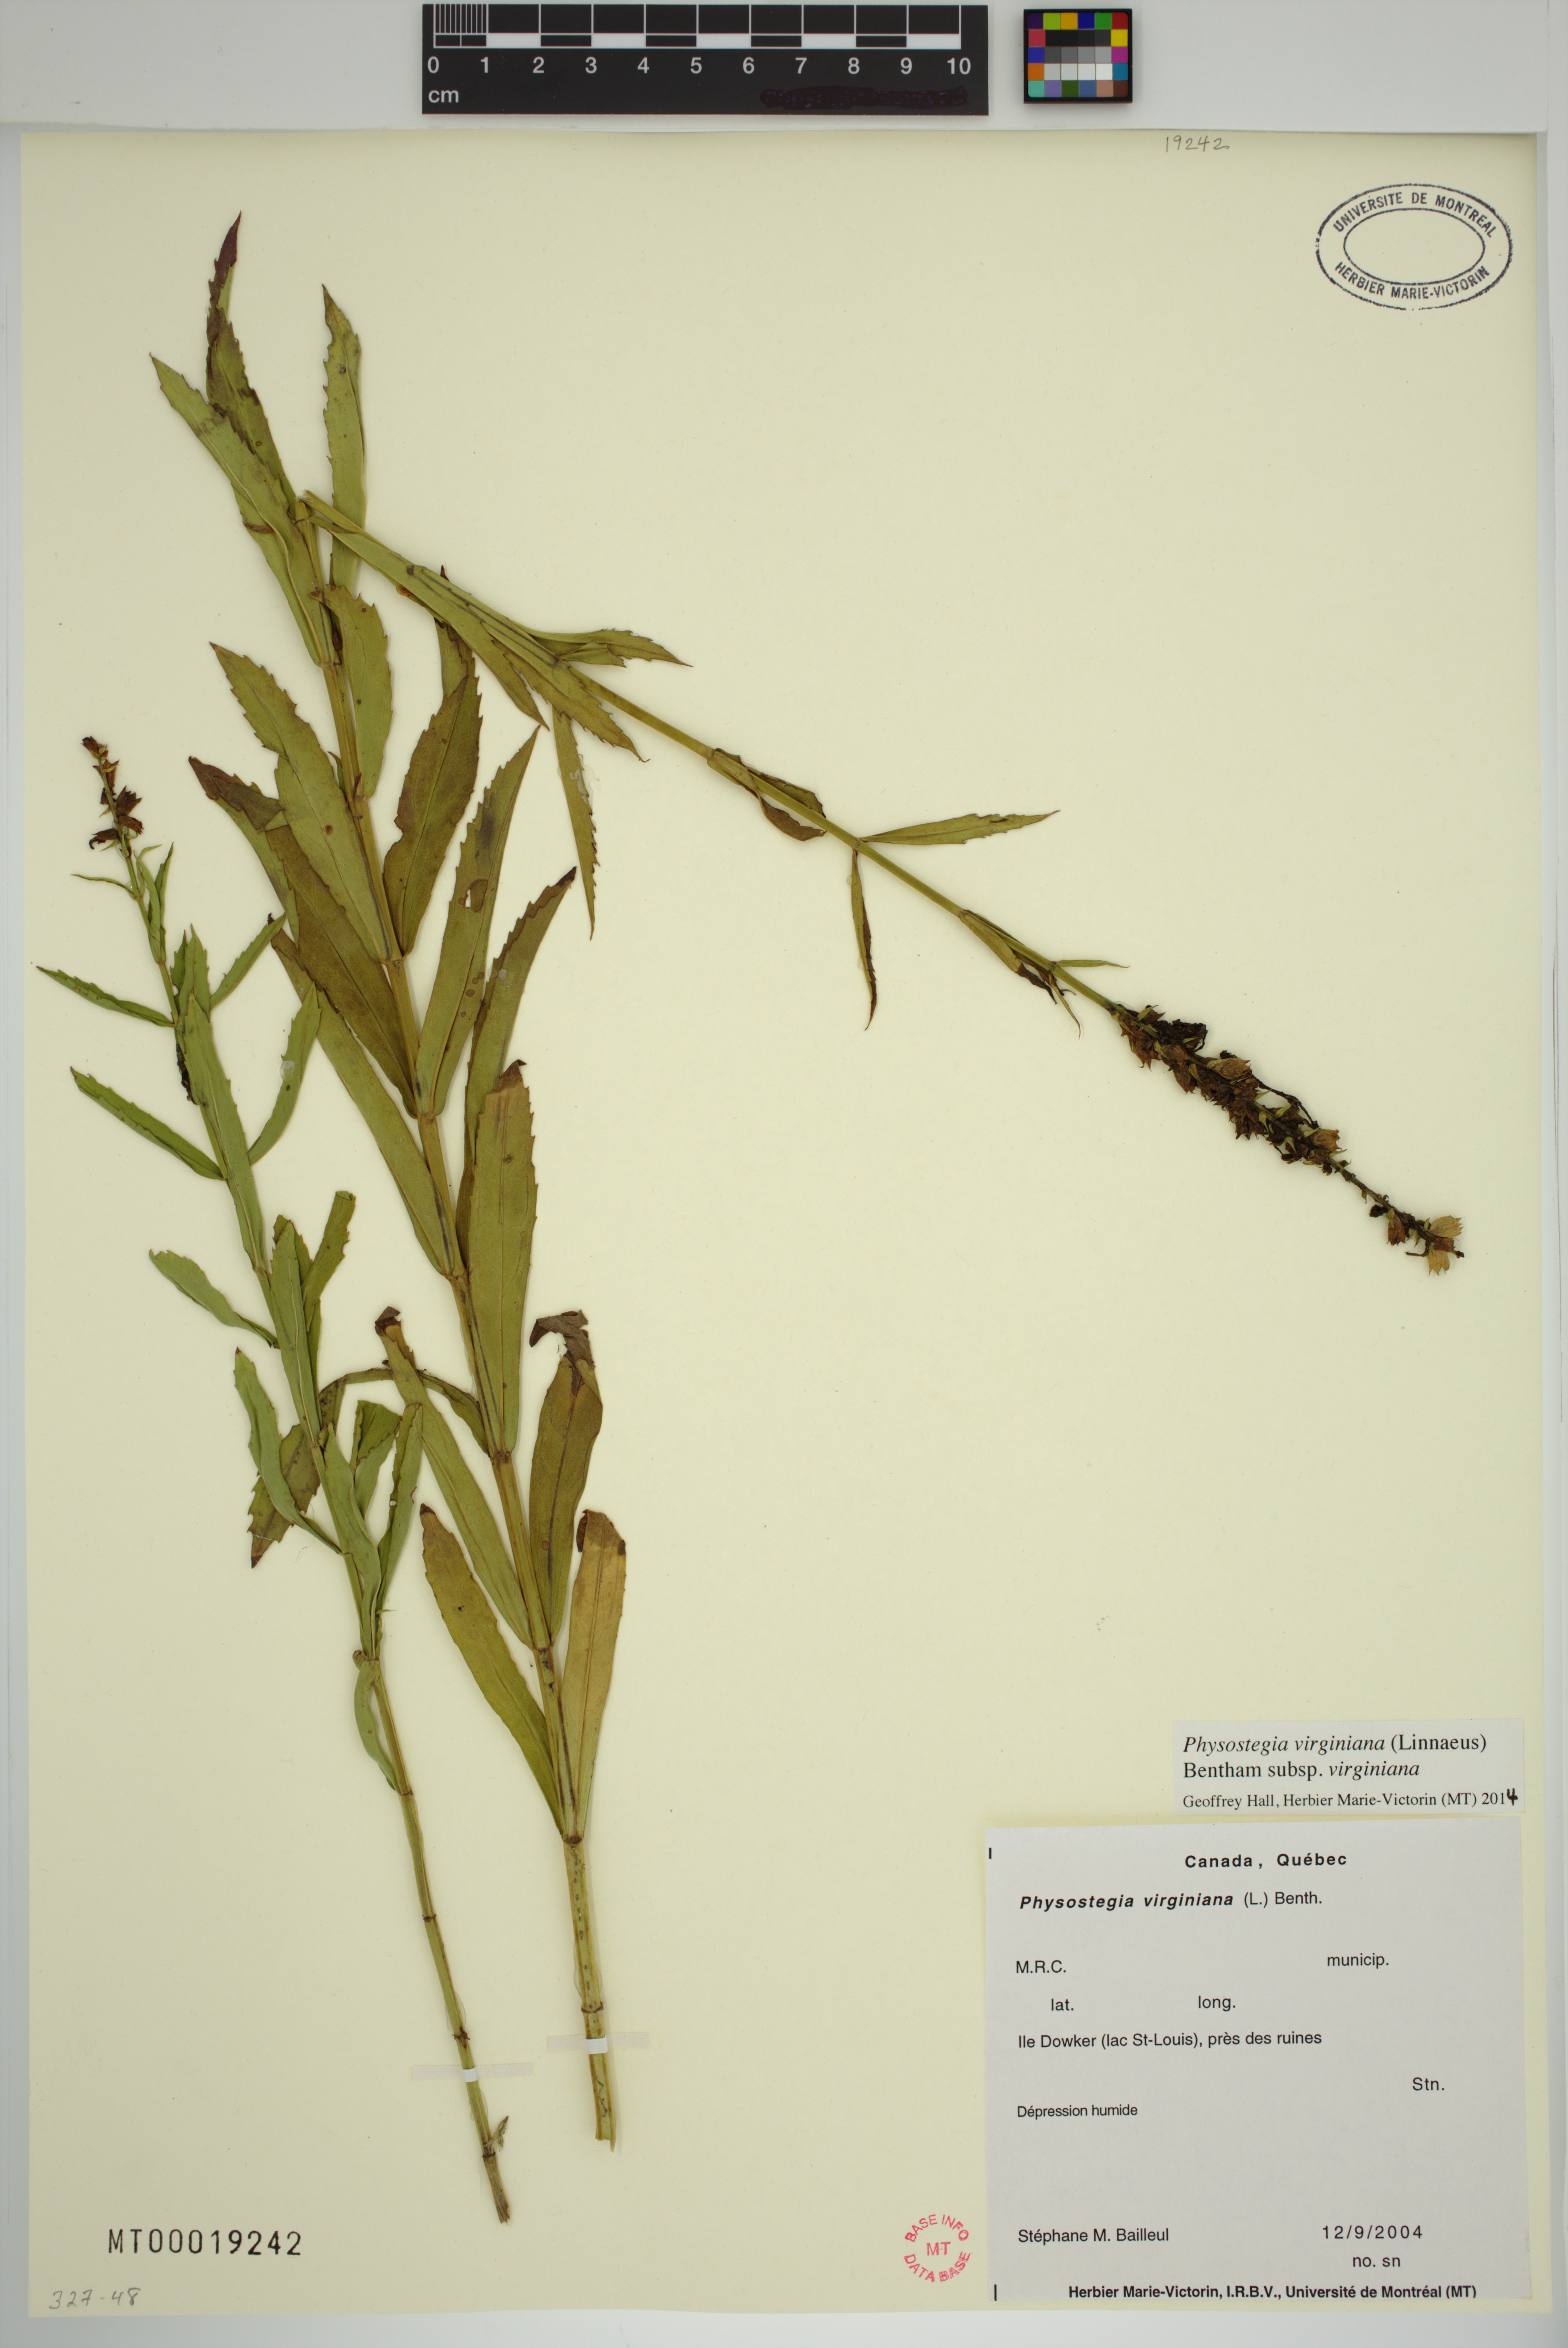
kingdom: Plantae
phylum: Tracheophyta
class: Magnoliopsida
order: Lamiales
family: Lamiaceae
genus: Physostegia
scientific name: Physostegia virginiana
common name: Obedient-plant
